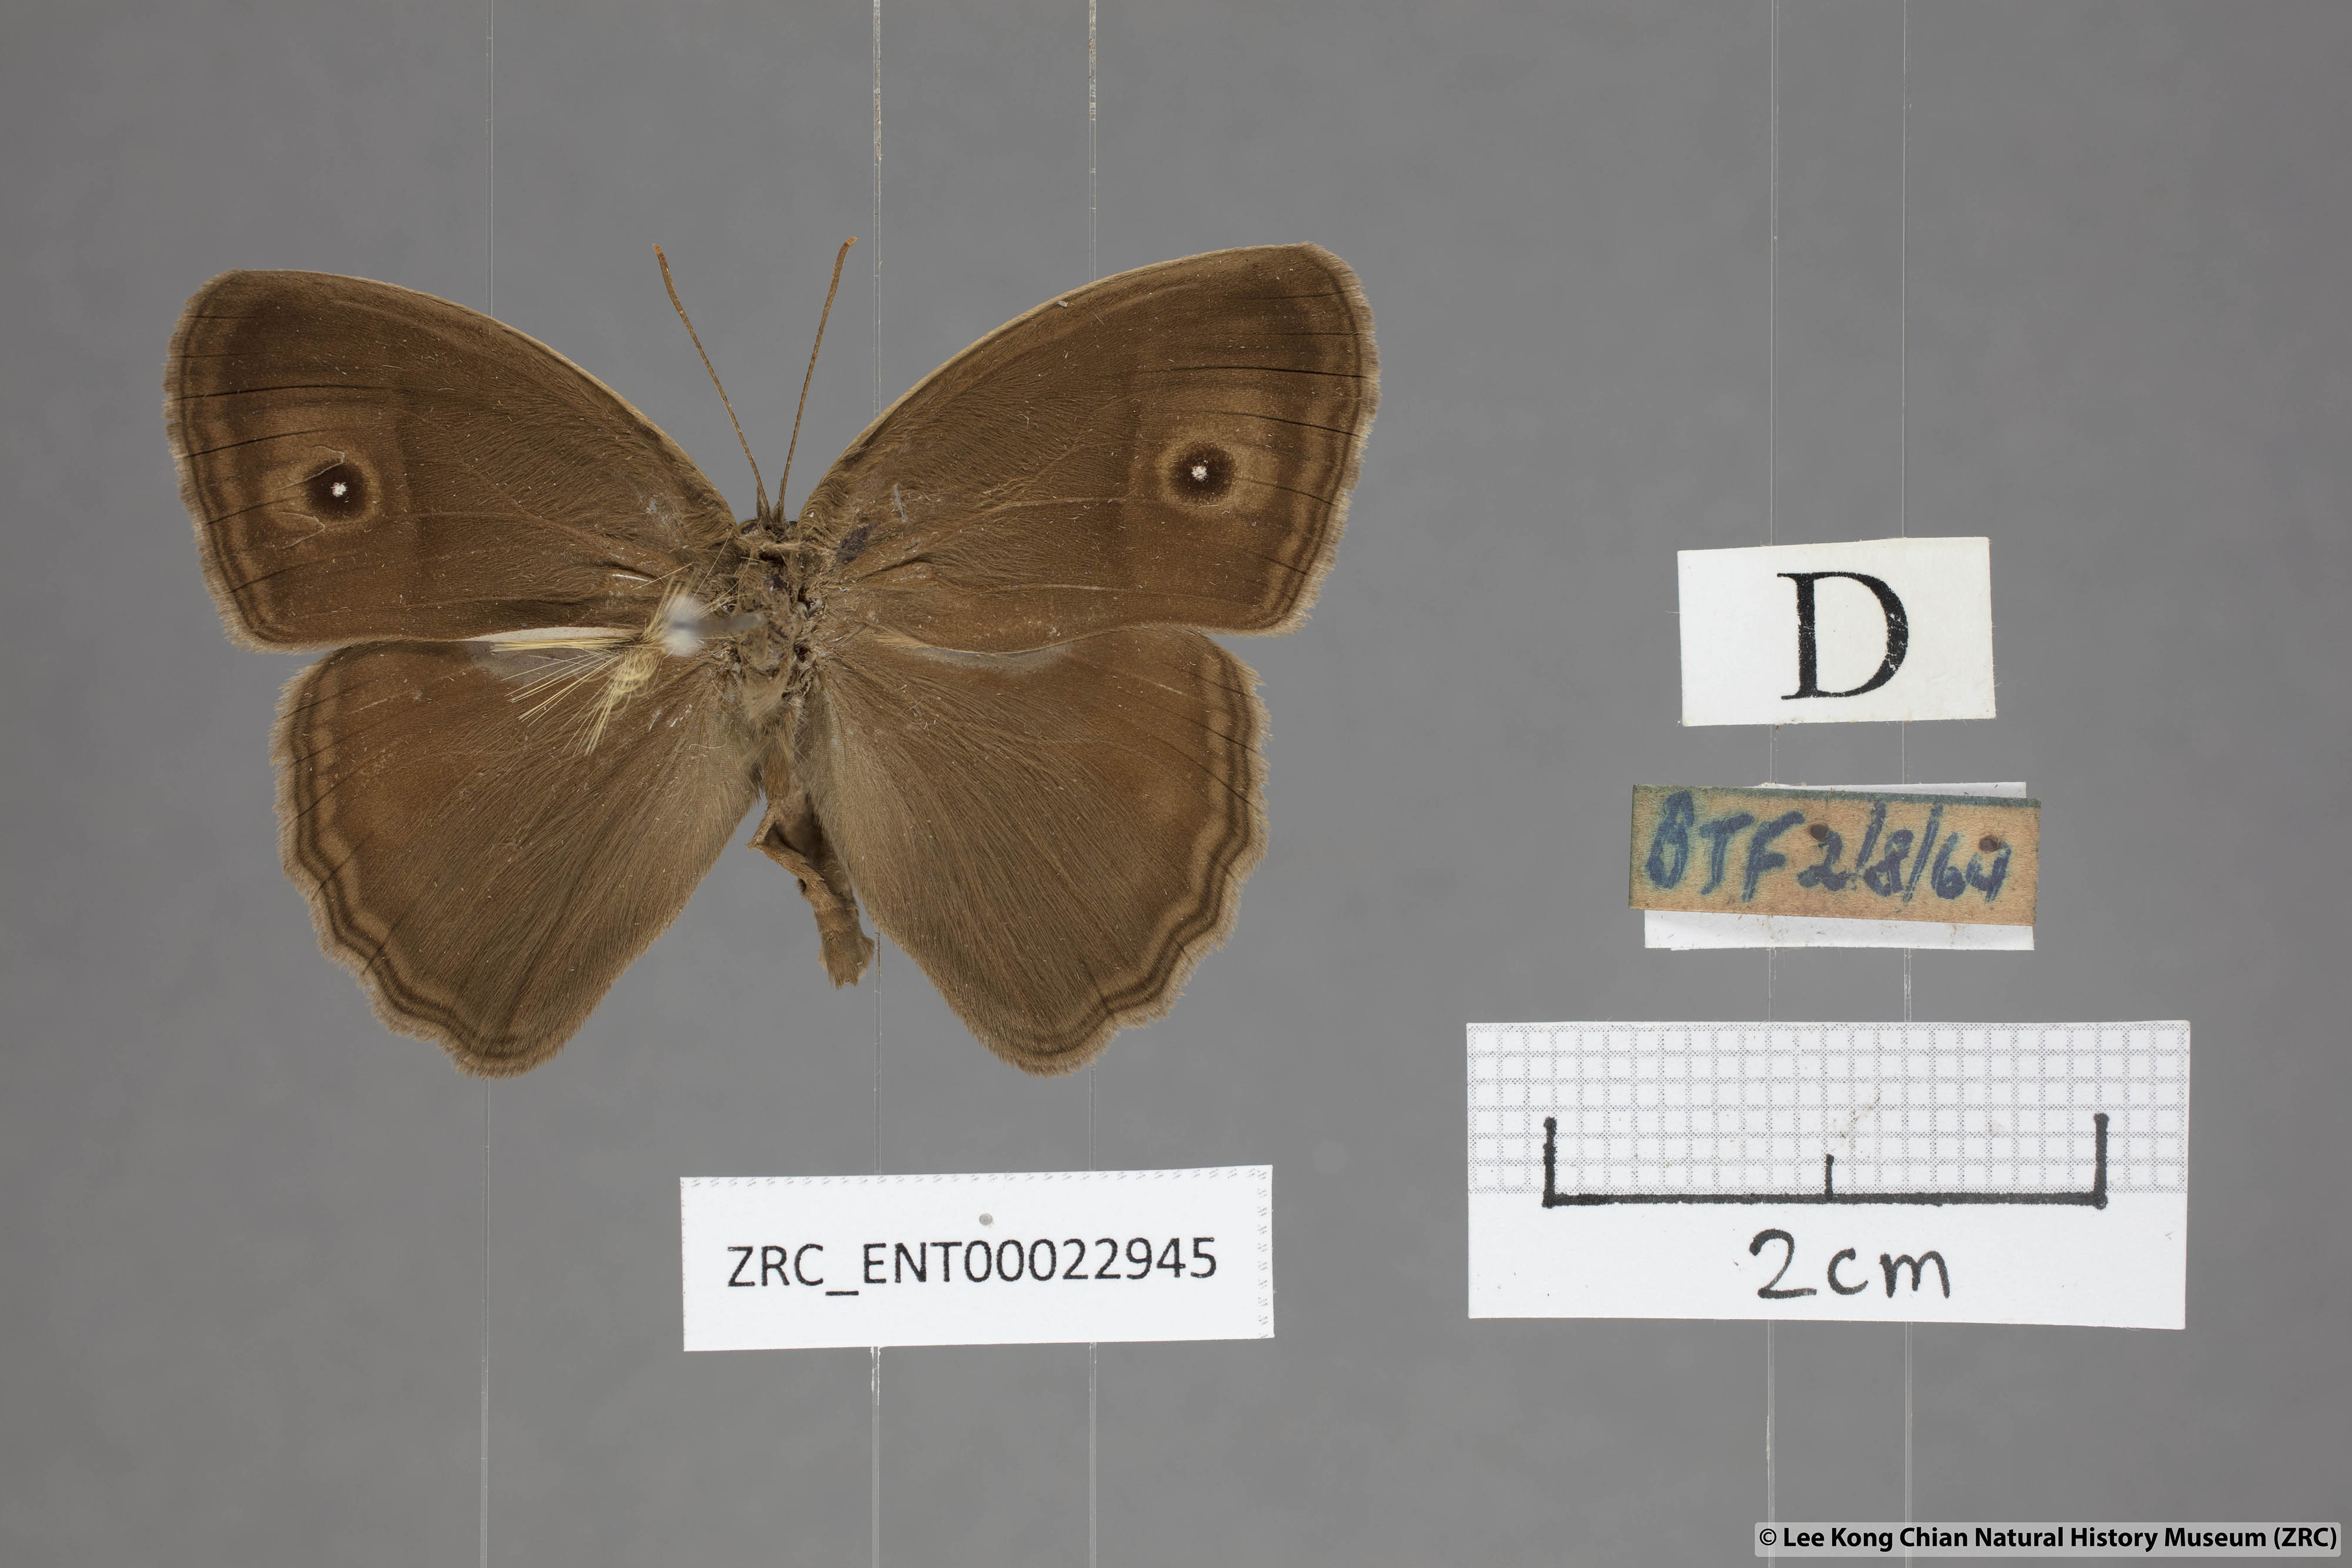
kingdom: Animalia
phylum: Arthropoda
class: Insecta
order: Lepidoptera
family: Nymphalidae
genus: Mycalesis
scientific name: Mycalesis mineus
